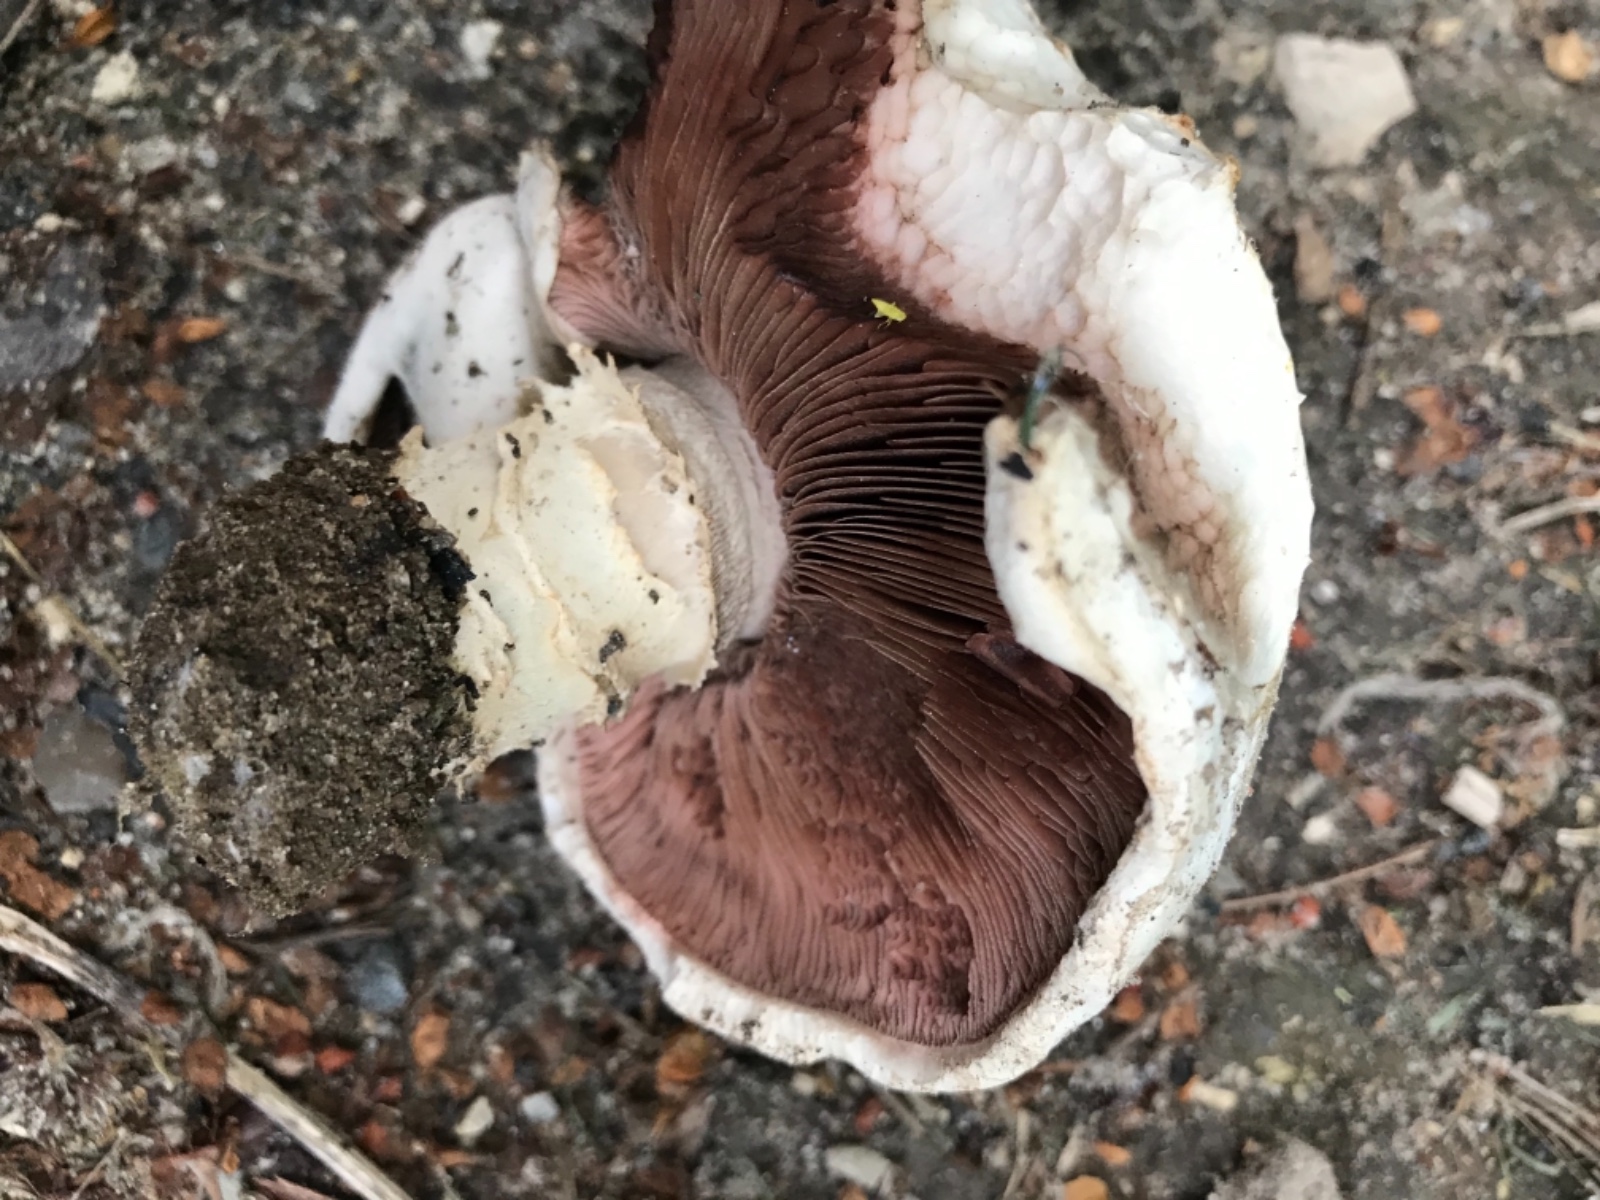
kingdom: Fungi
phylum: Basidiomycota
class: Agaricomycetes
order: Agaricales
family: Agaricaceae
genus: Agaricus
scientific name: Agaricus bitorquis
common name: vej-champignon
